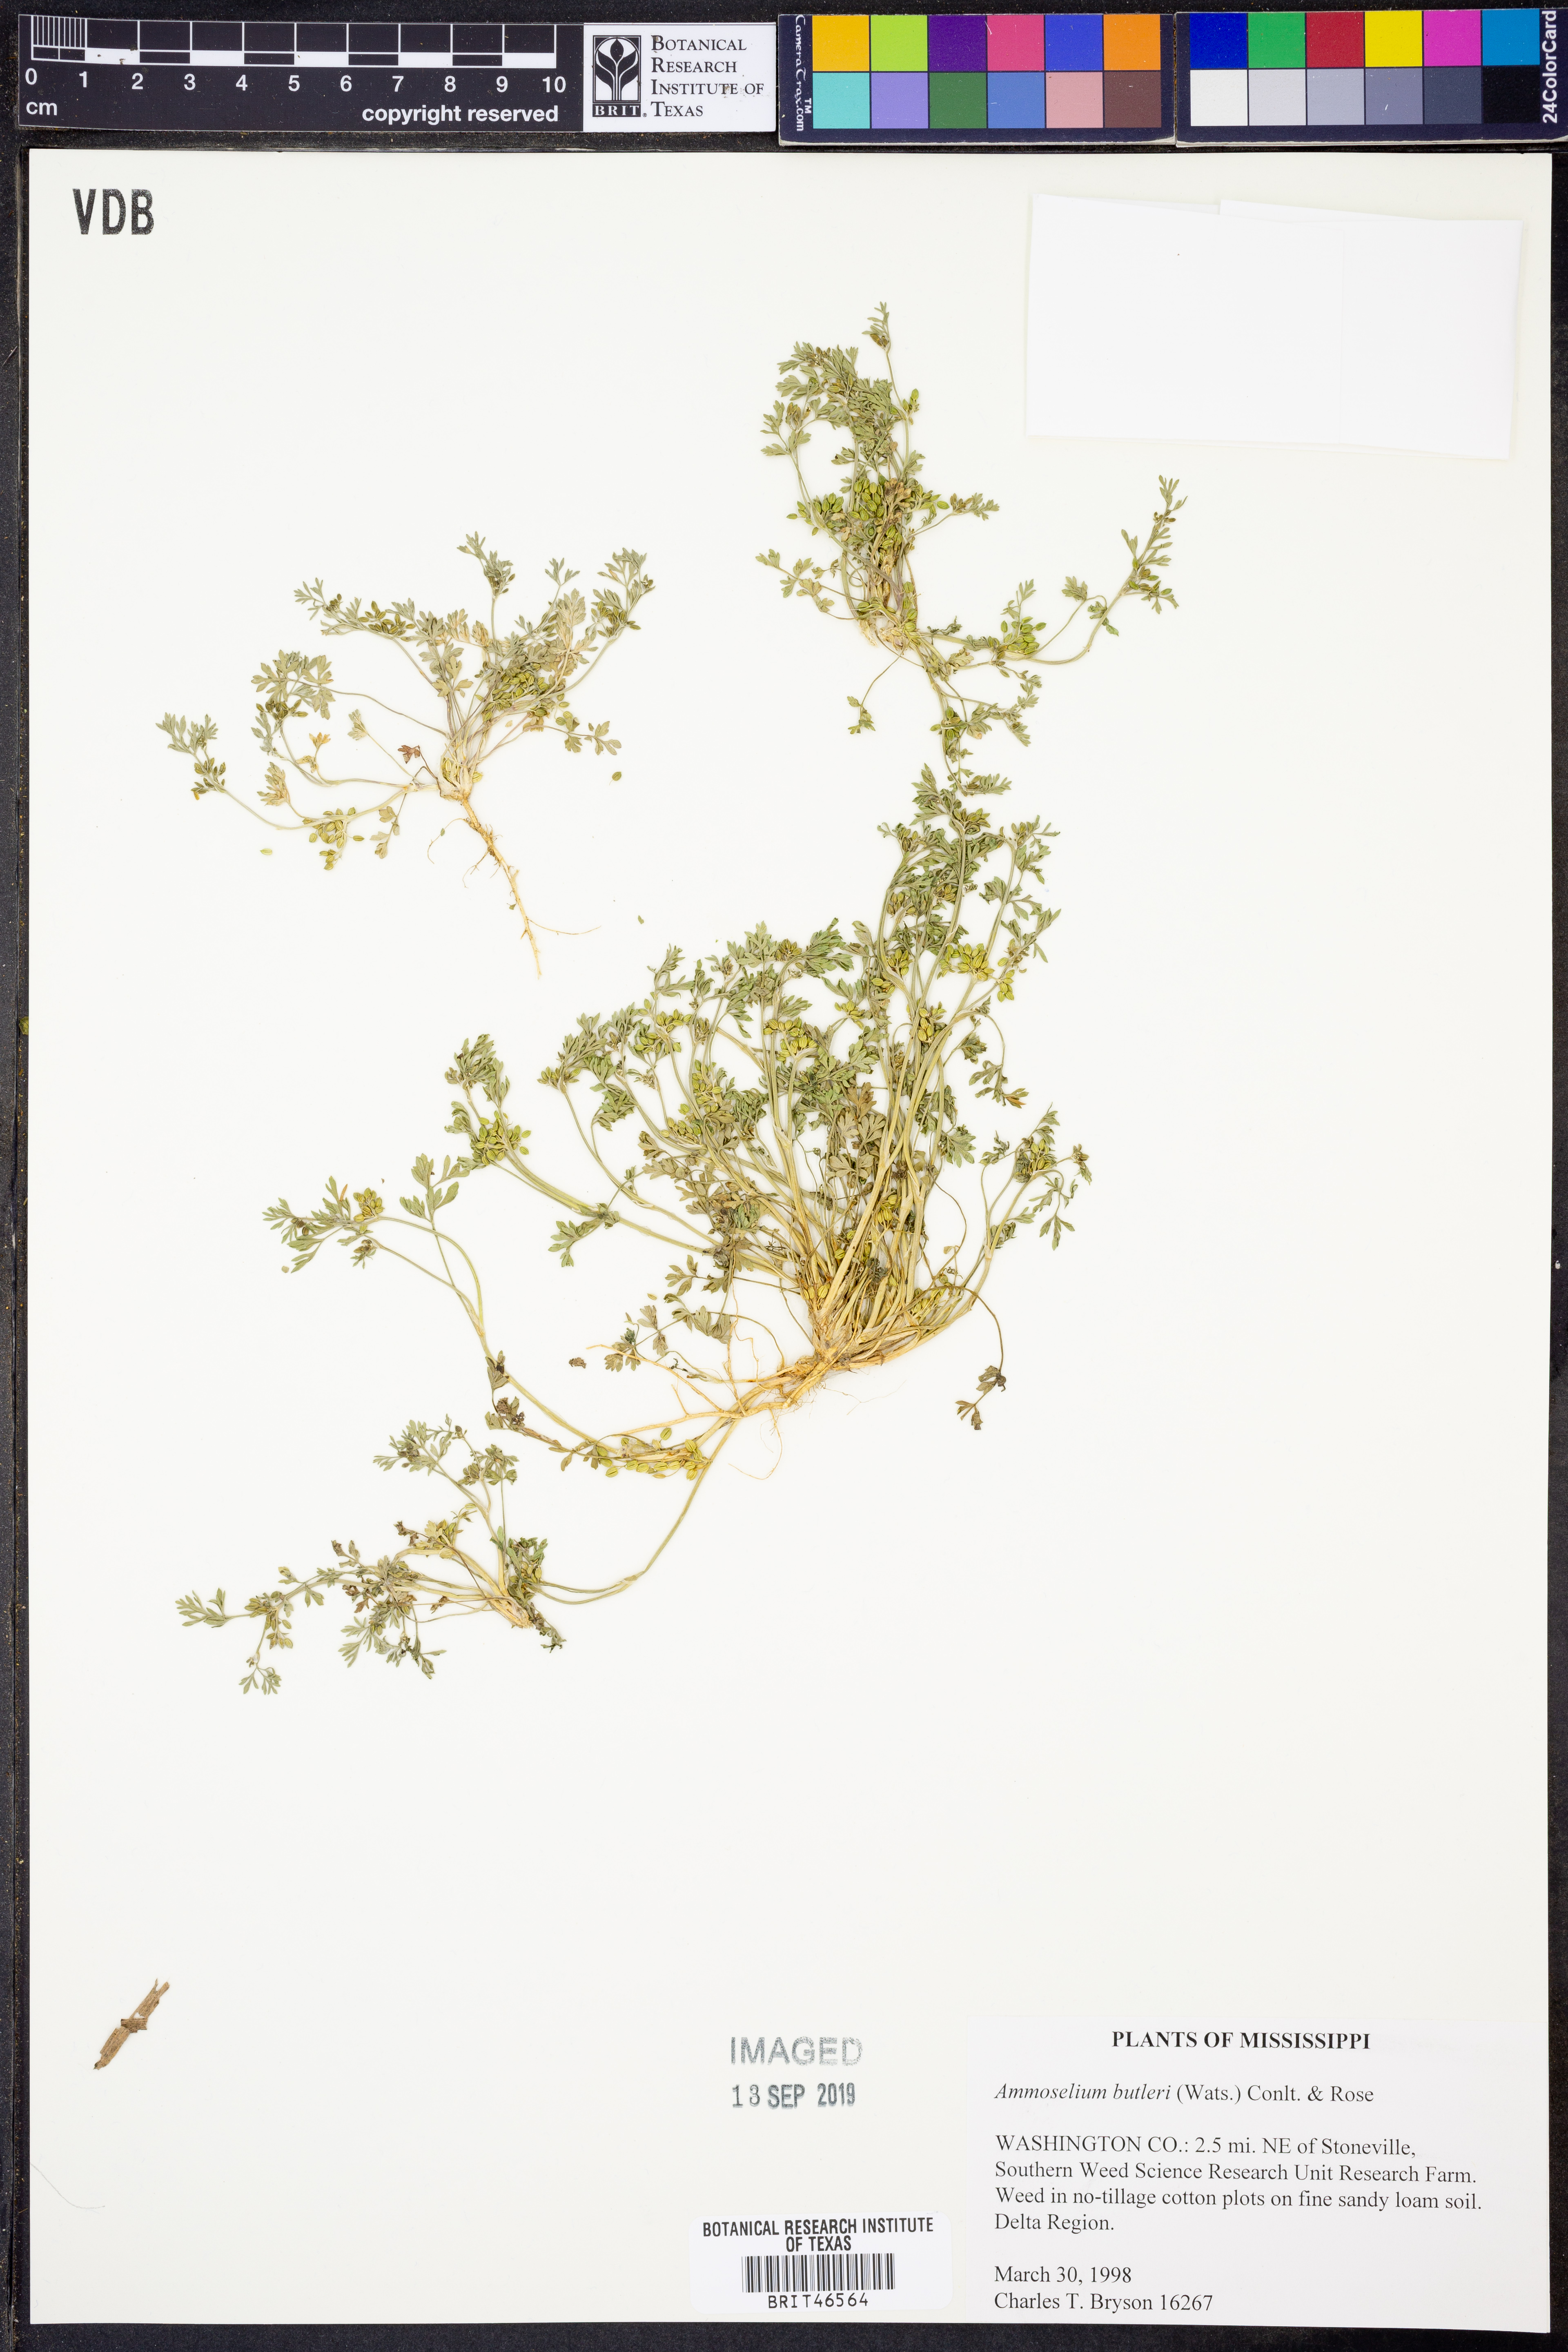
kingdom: Plantae
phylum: Tracheophyta
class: Magnoliopsida
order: Apiales
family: Apiaceae
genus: Ammoselinum
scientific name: Ammoselinum butleri
